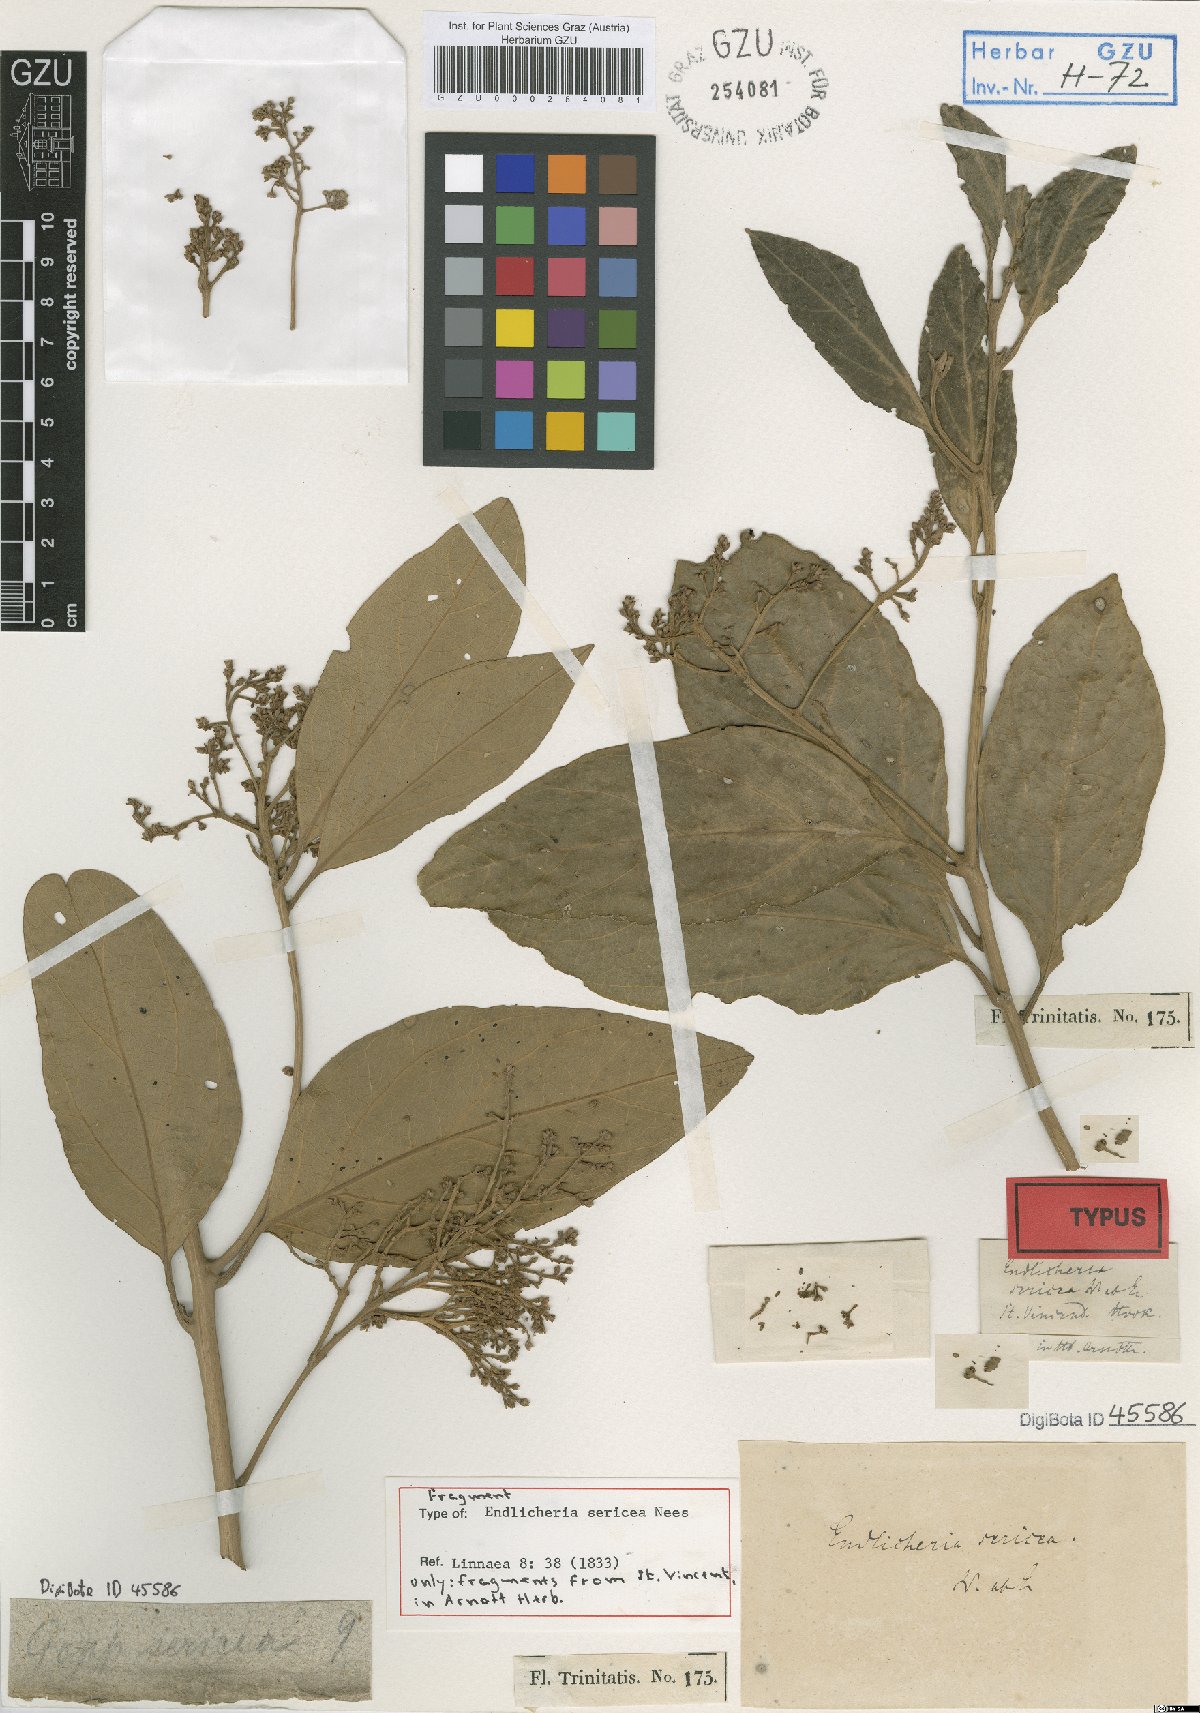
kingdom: Plantae
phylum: Tracheophyta
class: Magnoliopsida
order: Laurales
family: Lauraceae
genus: Endlicheria
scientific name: Endlicheria sericea
